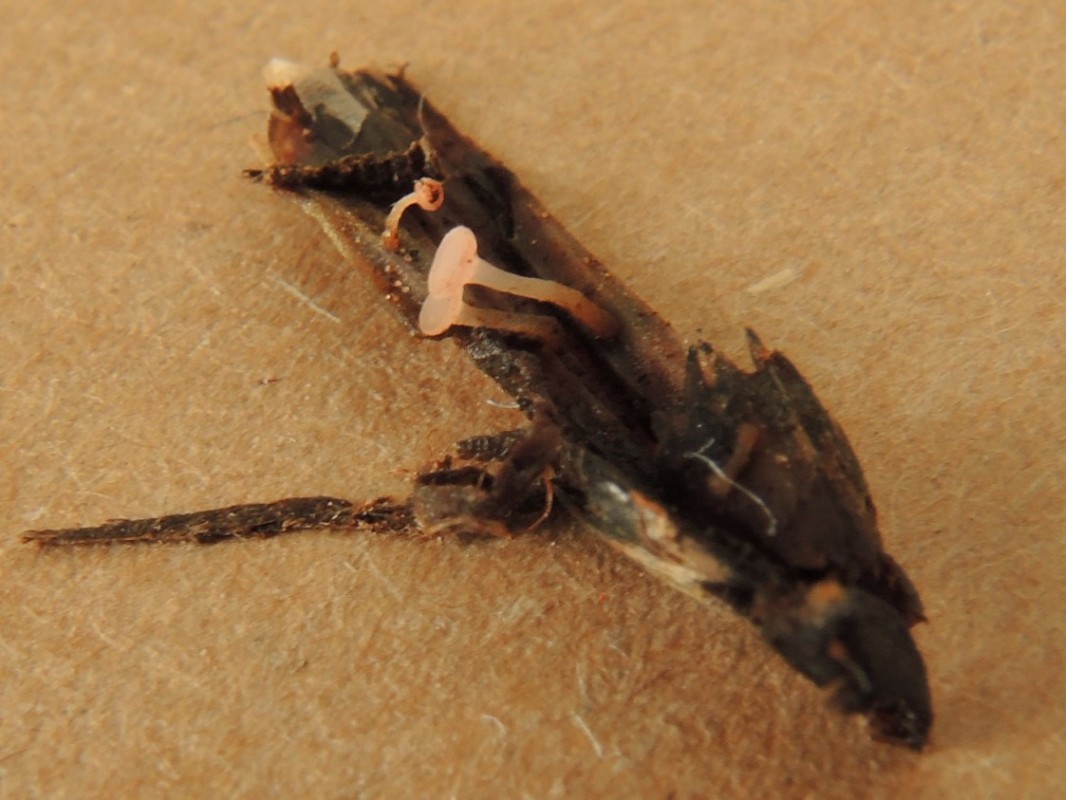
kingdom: Fungi
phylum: Ascomycota
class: Leotiomycetes
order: Helotiales
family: Hyaloscyphaceae
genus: Roseodiscus
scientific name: Roseodiscus rhodoleucus
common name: rosa stilkskive
